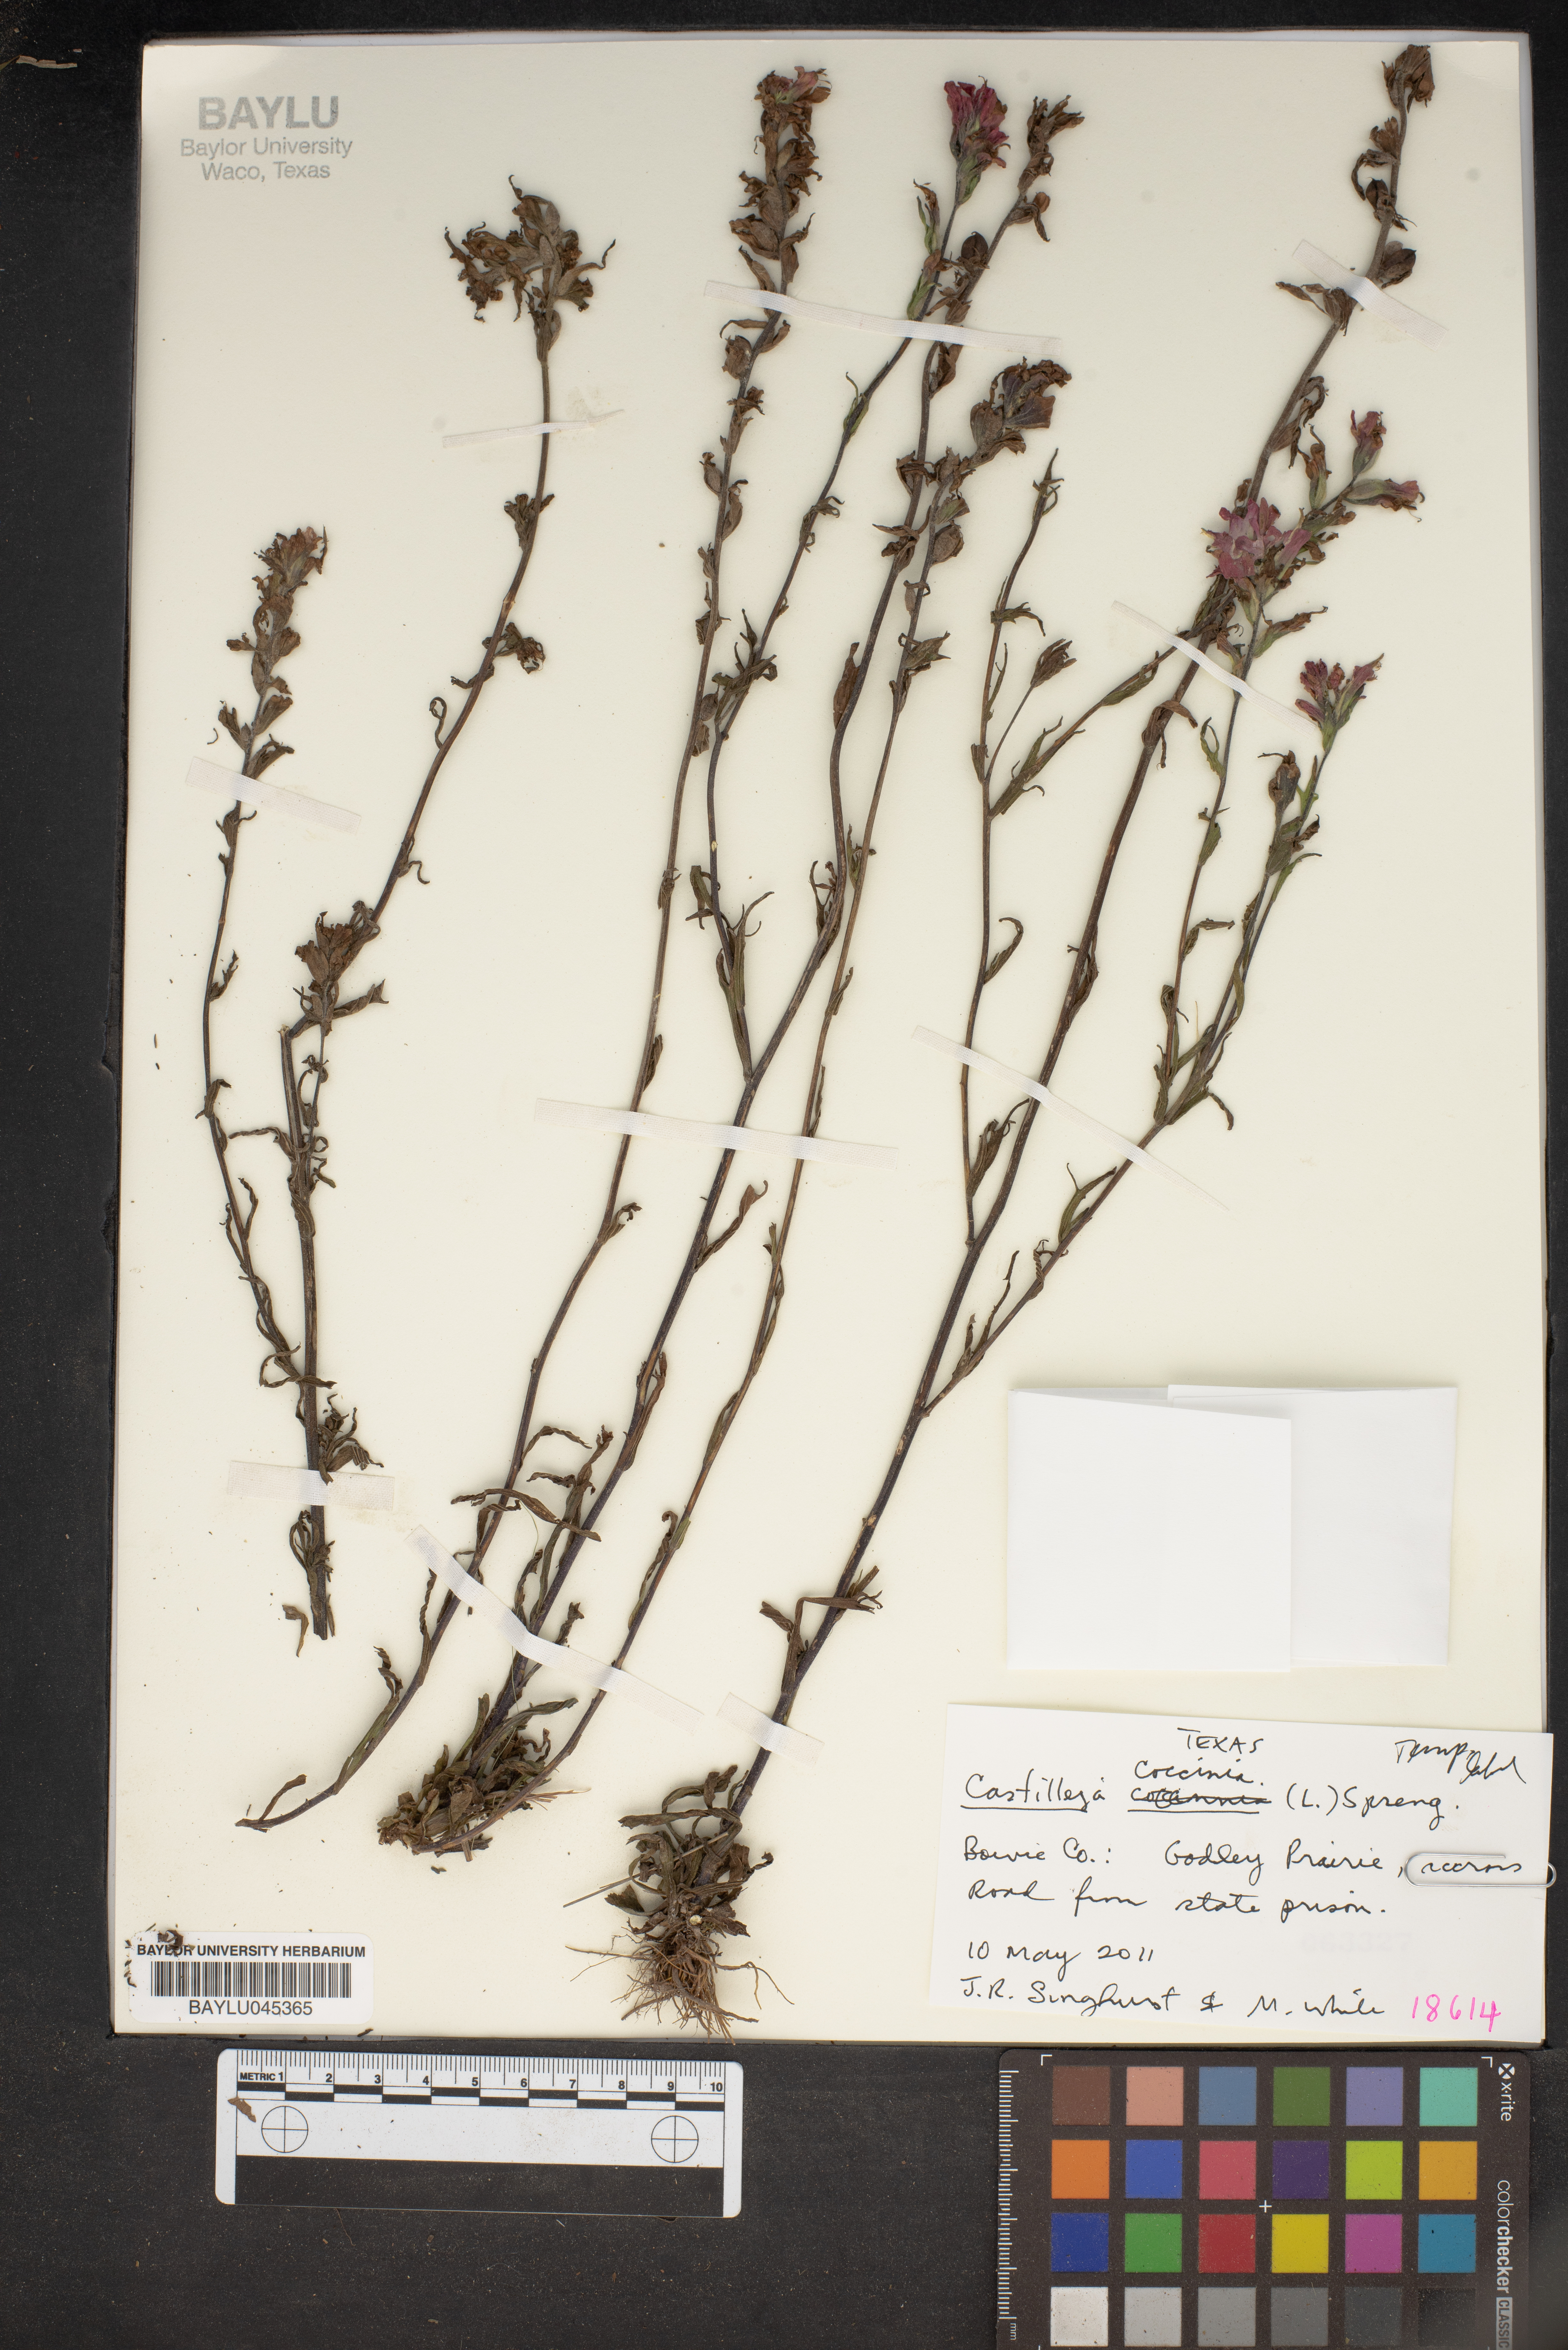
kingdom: Plantae
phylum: Tracheophyta
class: Magnoliopsida
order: Lamiales
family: Orobanchaceae
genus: Castilleja
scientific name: Castilleja coccinea
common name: Scarlet paintbrush
